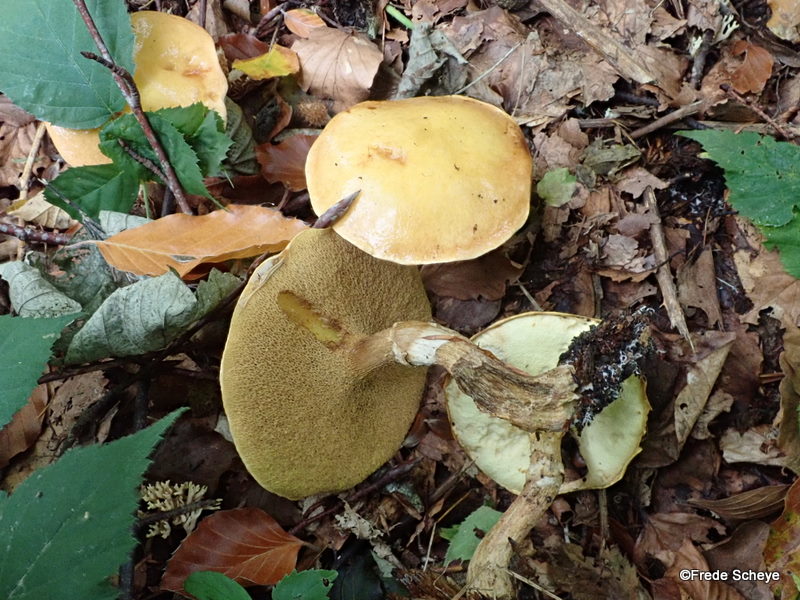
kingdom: Fungi
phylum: Basidiomycota
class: Agaricomycetes
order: Boletales
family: Suillaceae
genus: Suillus
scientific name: Suillus grevillei
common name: lærke-slimrørhat
